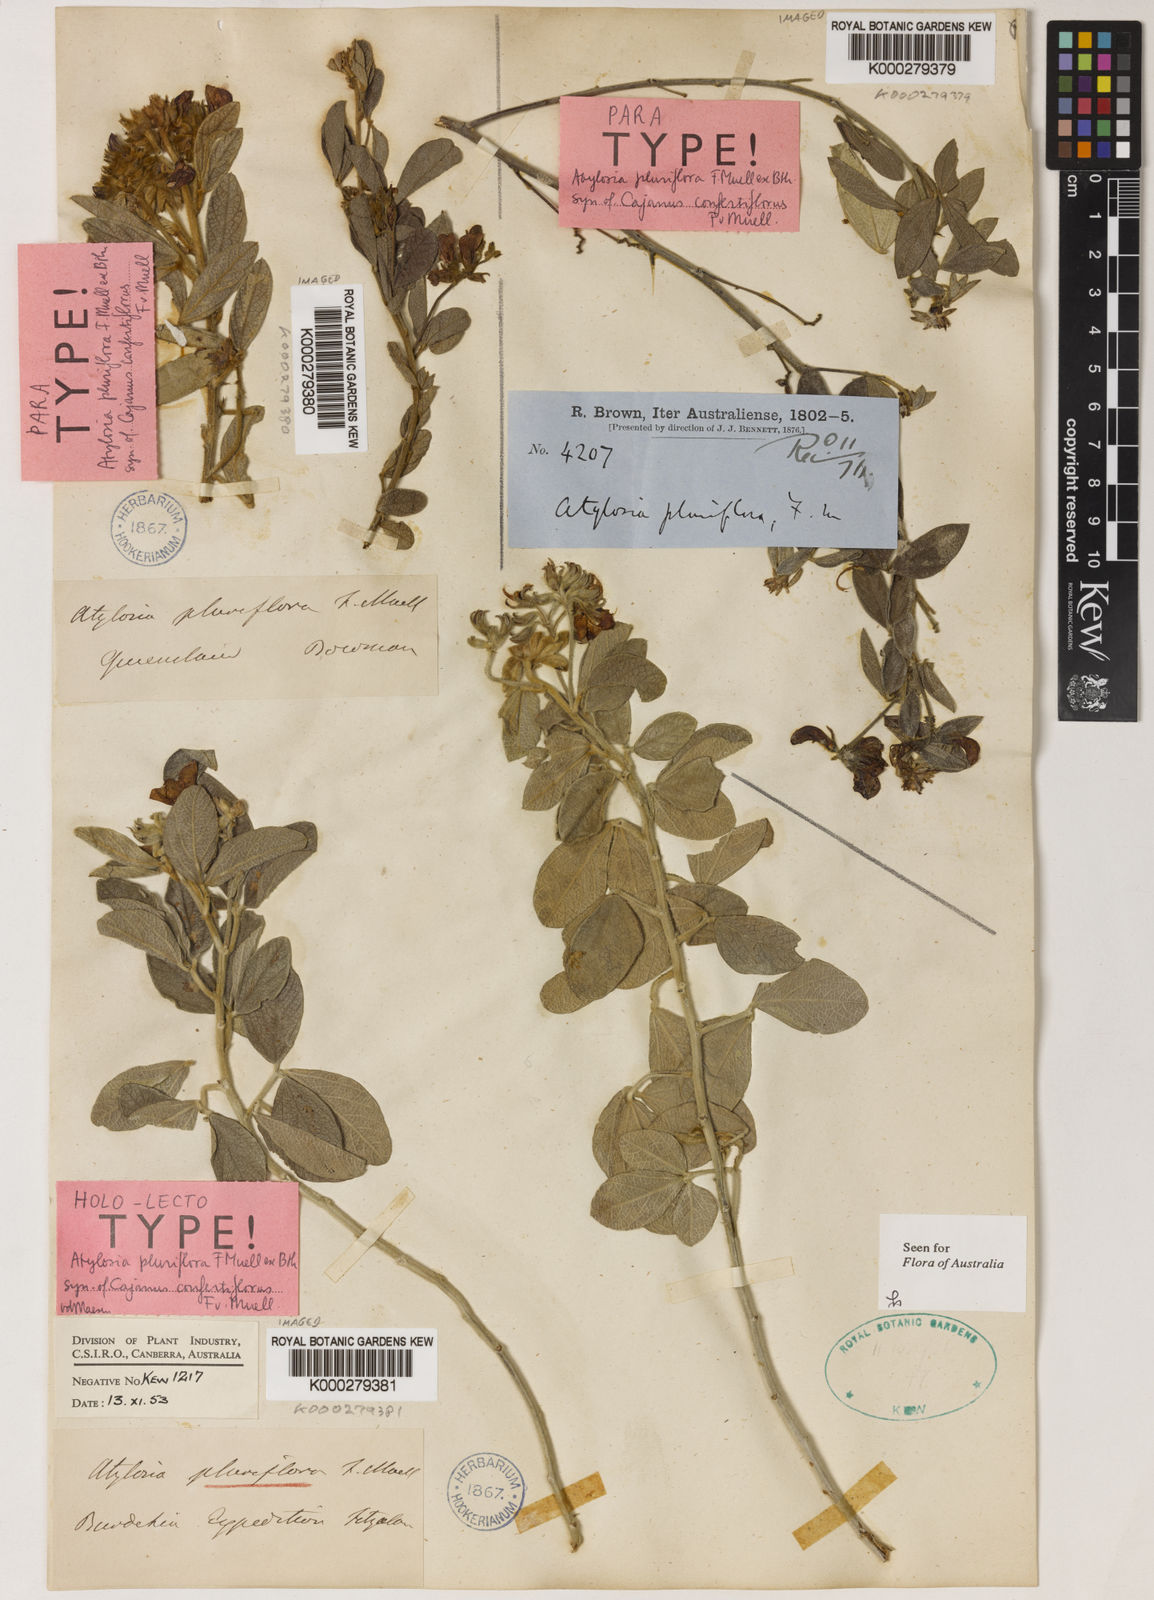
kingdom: Plantae
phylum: Tracheophyta
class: Magnoliopsida
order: Fabales
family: Fabaceae
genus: Cajanus
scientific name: Cajanus confertiflorus
